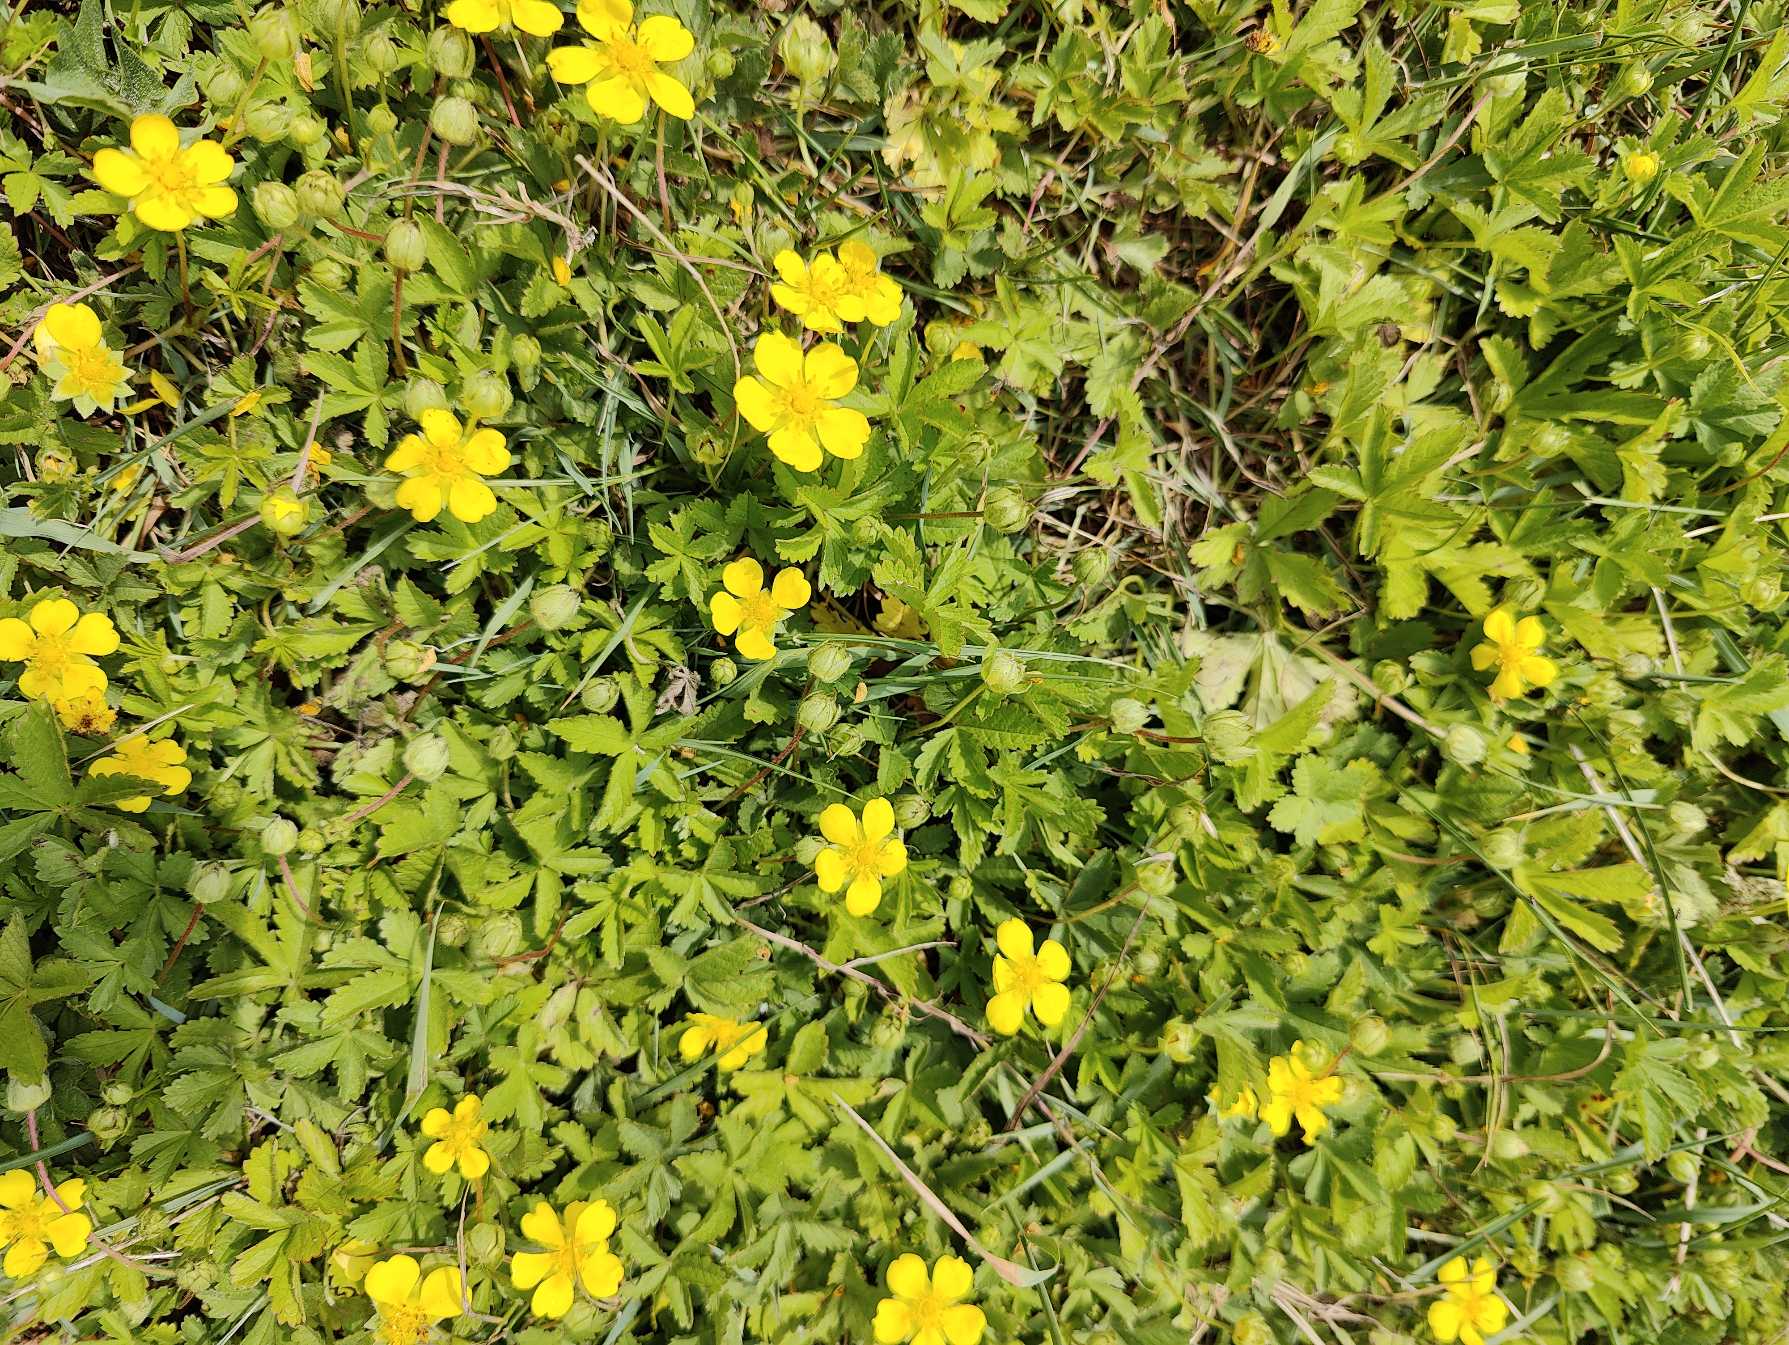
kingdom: Plantae
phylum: Tracheophyta
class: Magnoliopsida
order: Rosales
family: Rosaceae
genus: Potentilla
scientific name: Potentilla reptans
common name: Krybende potentil
